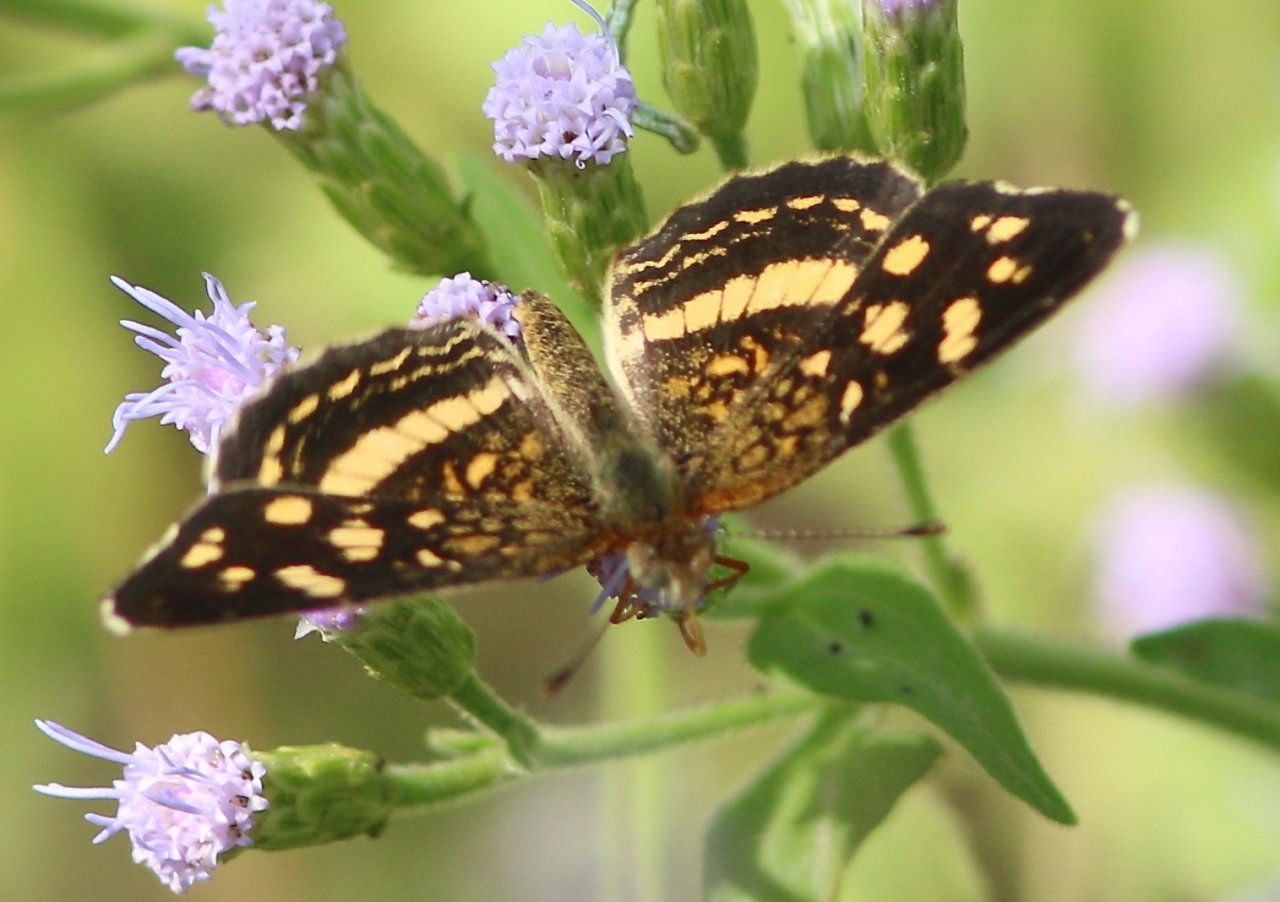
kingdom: Animalia
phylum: Arthropoda
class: Insecta
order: Lepidoptera
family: Nymphalidae
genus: Anthanassa
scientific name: Anthanassa tulcis
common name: Pale-banded Crescent
